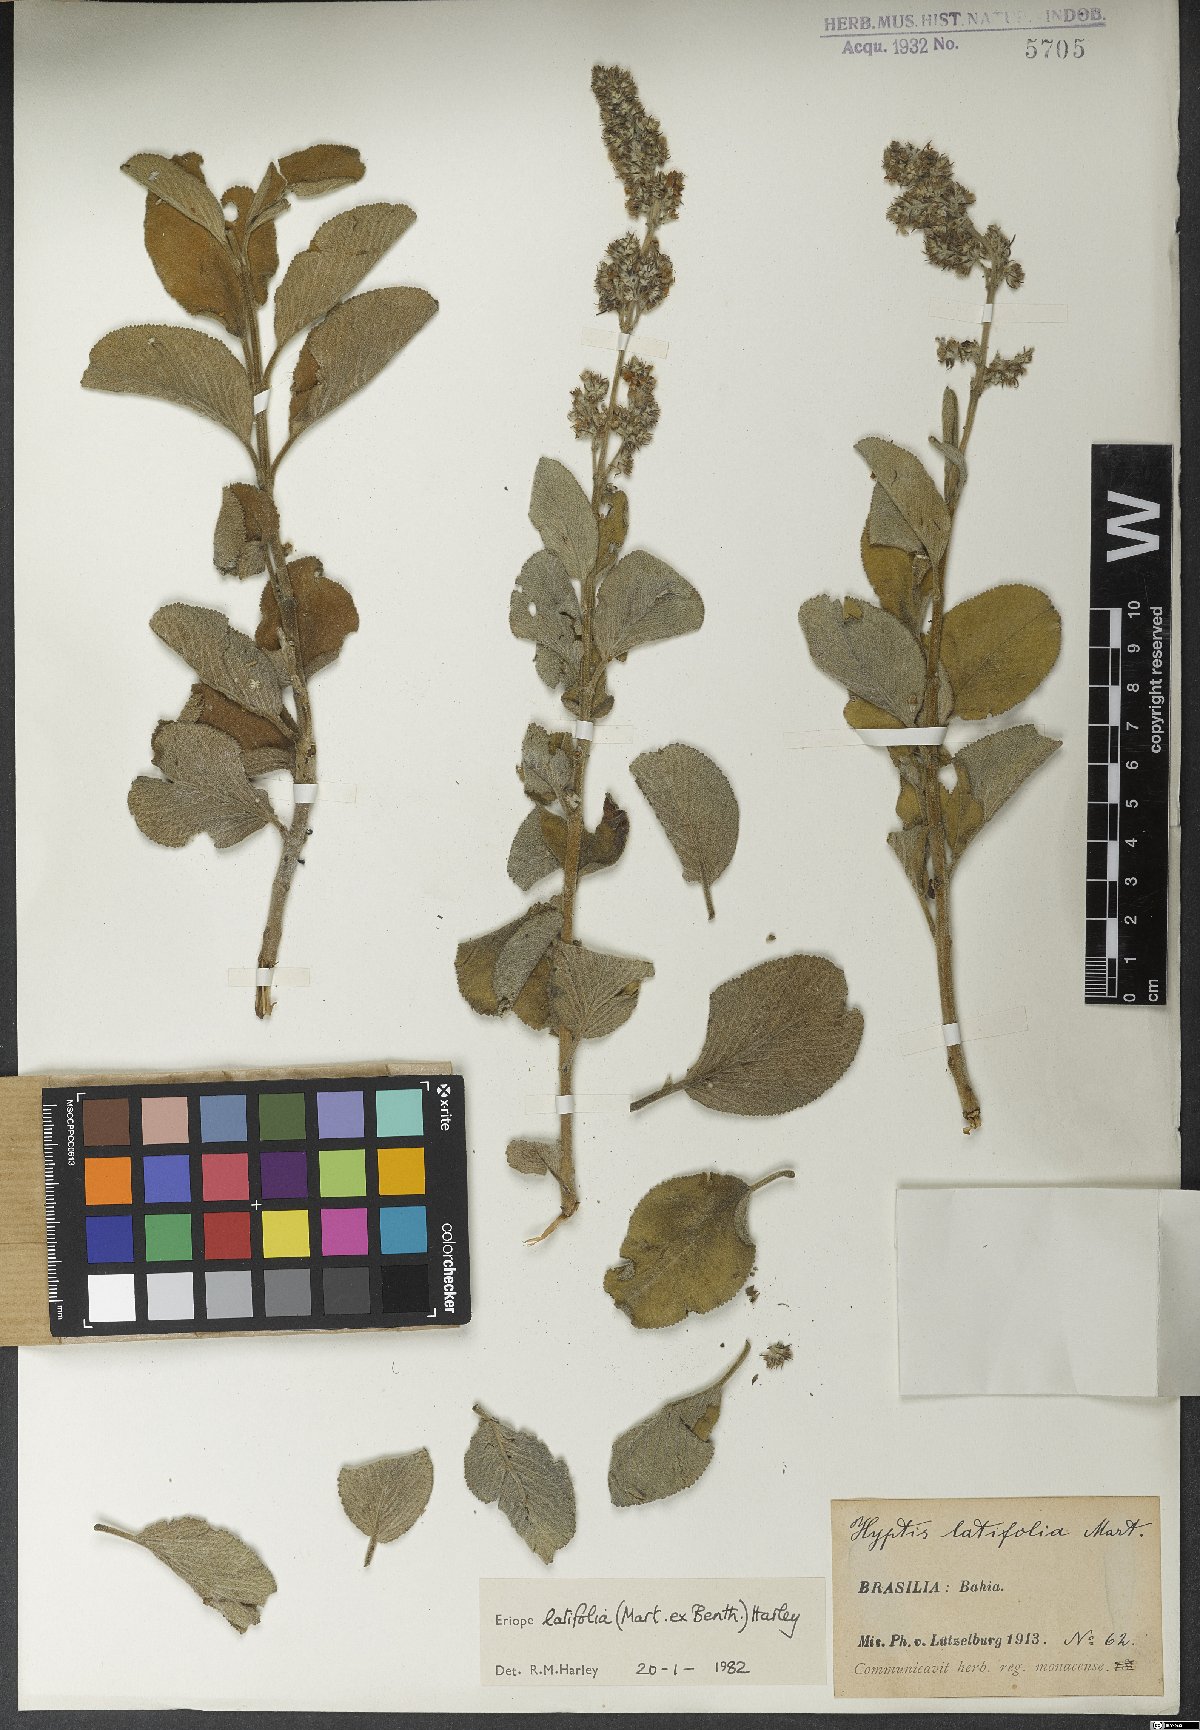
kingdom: Plantae
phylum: Tracheophyta
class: Magnoliopsida
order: Lamiales
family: Lamiaceae
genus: Eriope
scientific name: Eriope latifolia
